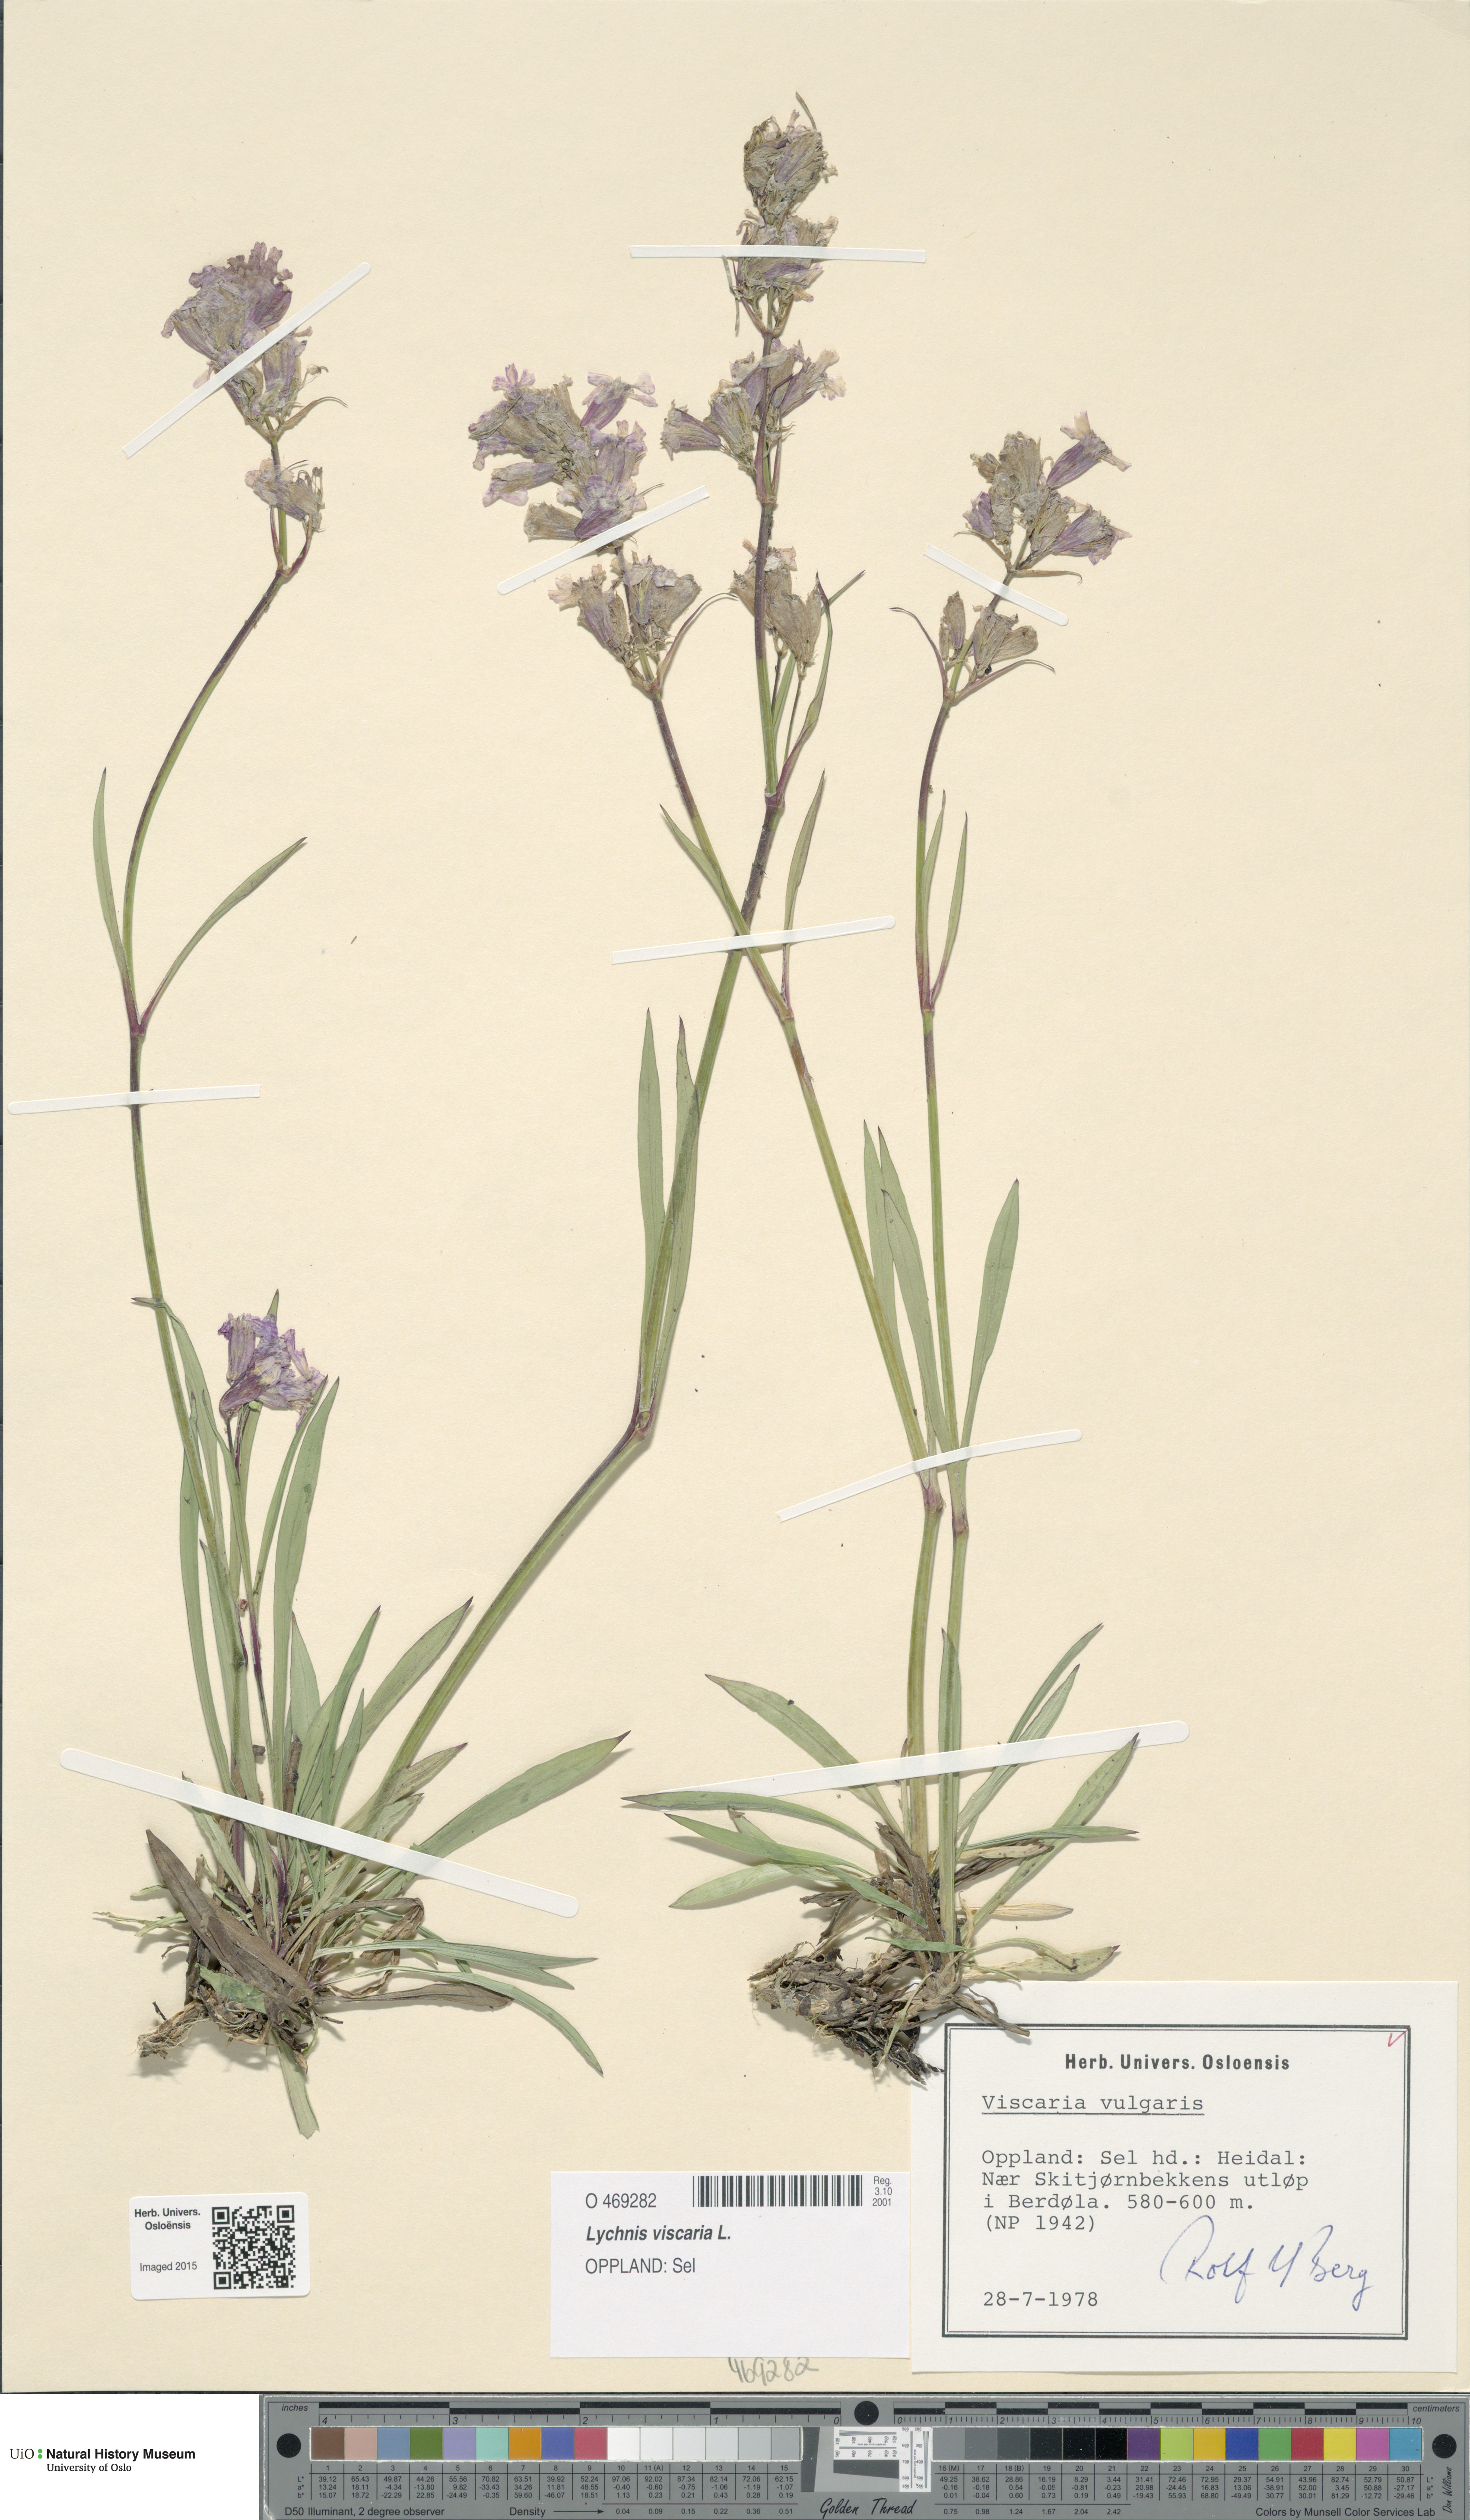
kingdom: Plantae
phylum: Tracheophyta
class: Magnoliopsida
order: Caryophyllales
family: Caryophyllaceae
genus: Viscaria
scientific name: Viscaria vulgaris
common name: Clammy campion
